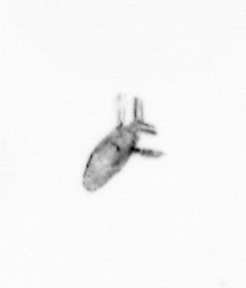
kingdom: Animalia
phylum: Arthropoda
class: Copepoda
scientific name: Copepoda
